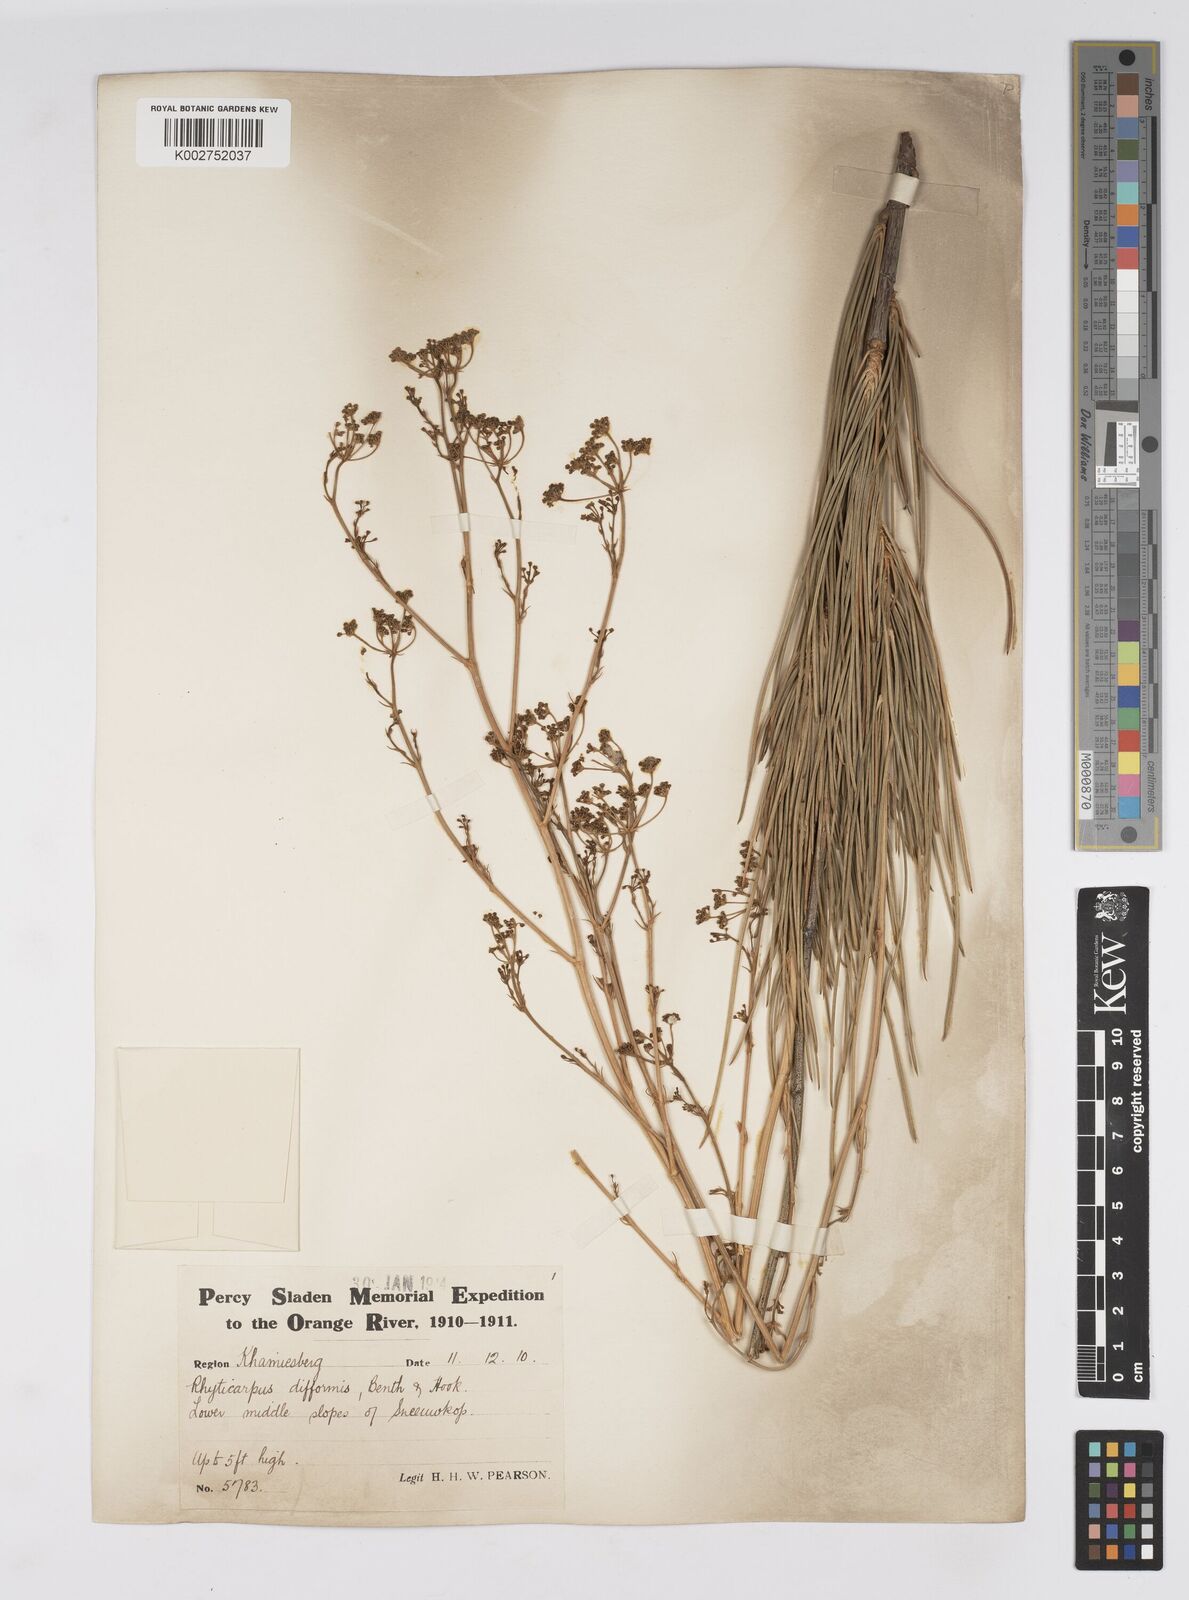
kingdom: Plantae
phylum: Tracheophyta
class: Magnoliopsida
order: Apiales
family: Apiaceae
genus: Anginon
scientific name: Anginon difforme
